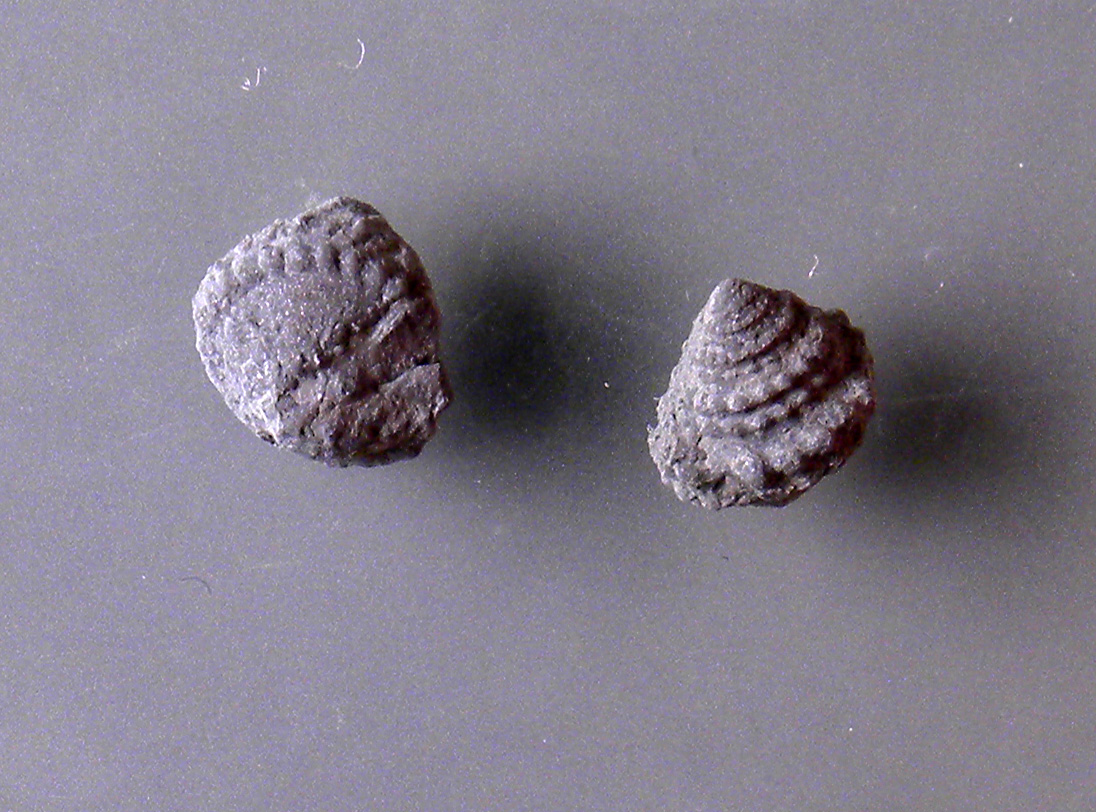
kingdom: Animalia
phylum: Mollusca
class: Gastropoda
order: Trochida
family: Nododelphinulidae
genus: Costatrochus
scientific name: Costatrochus subduplicatus
